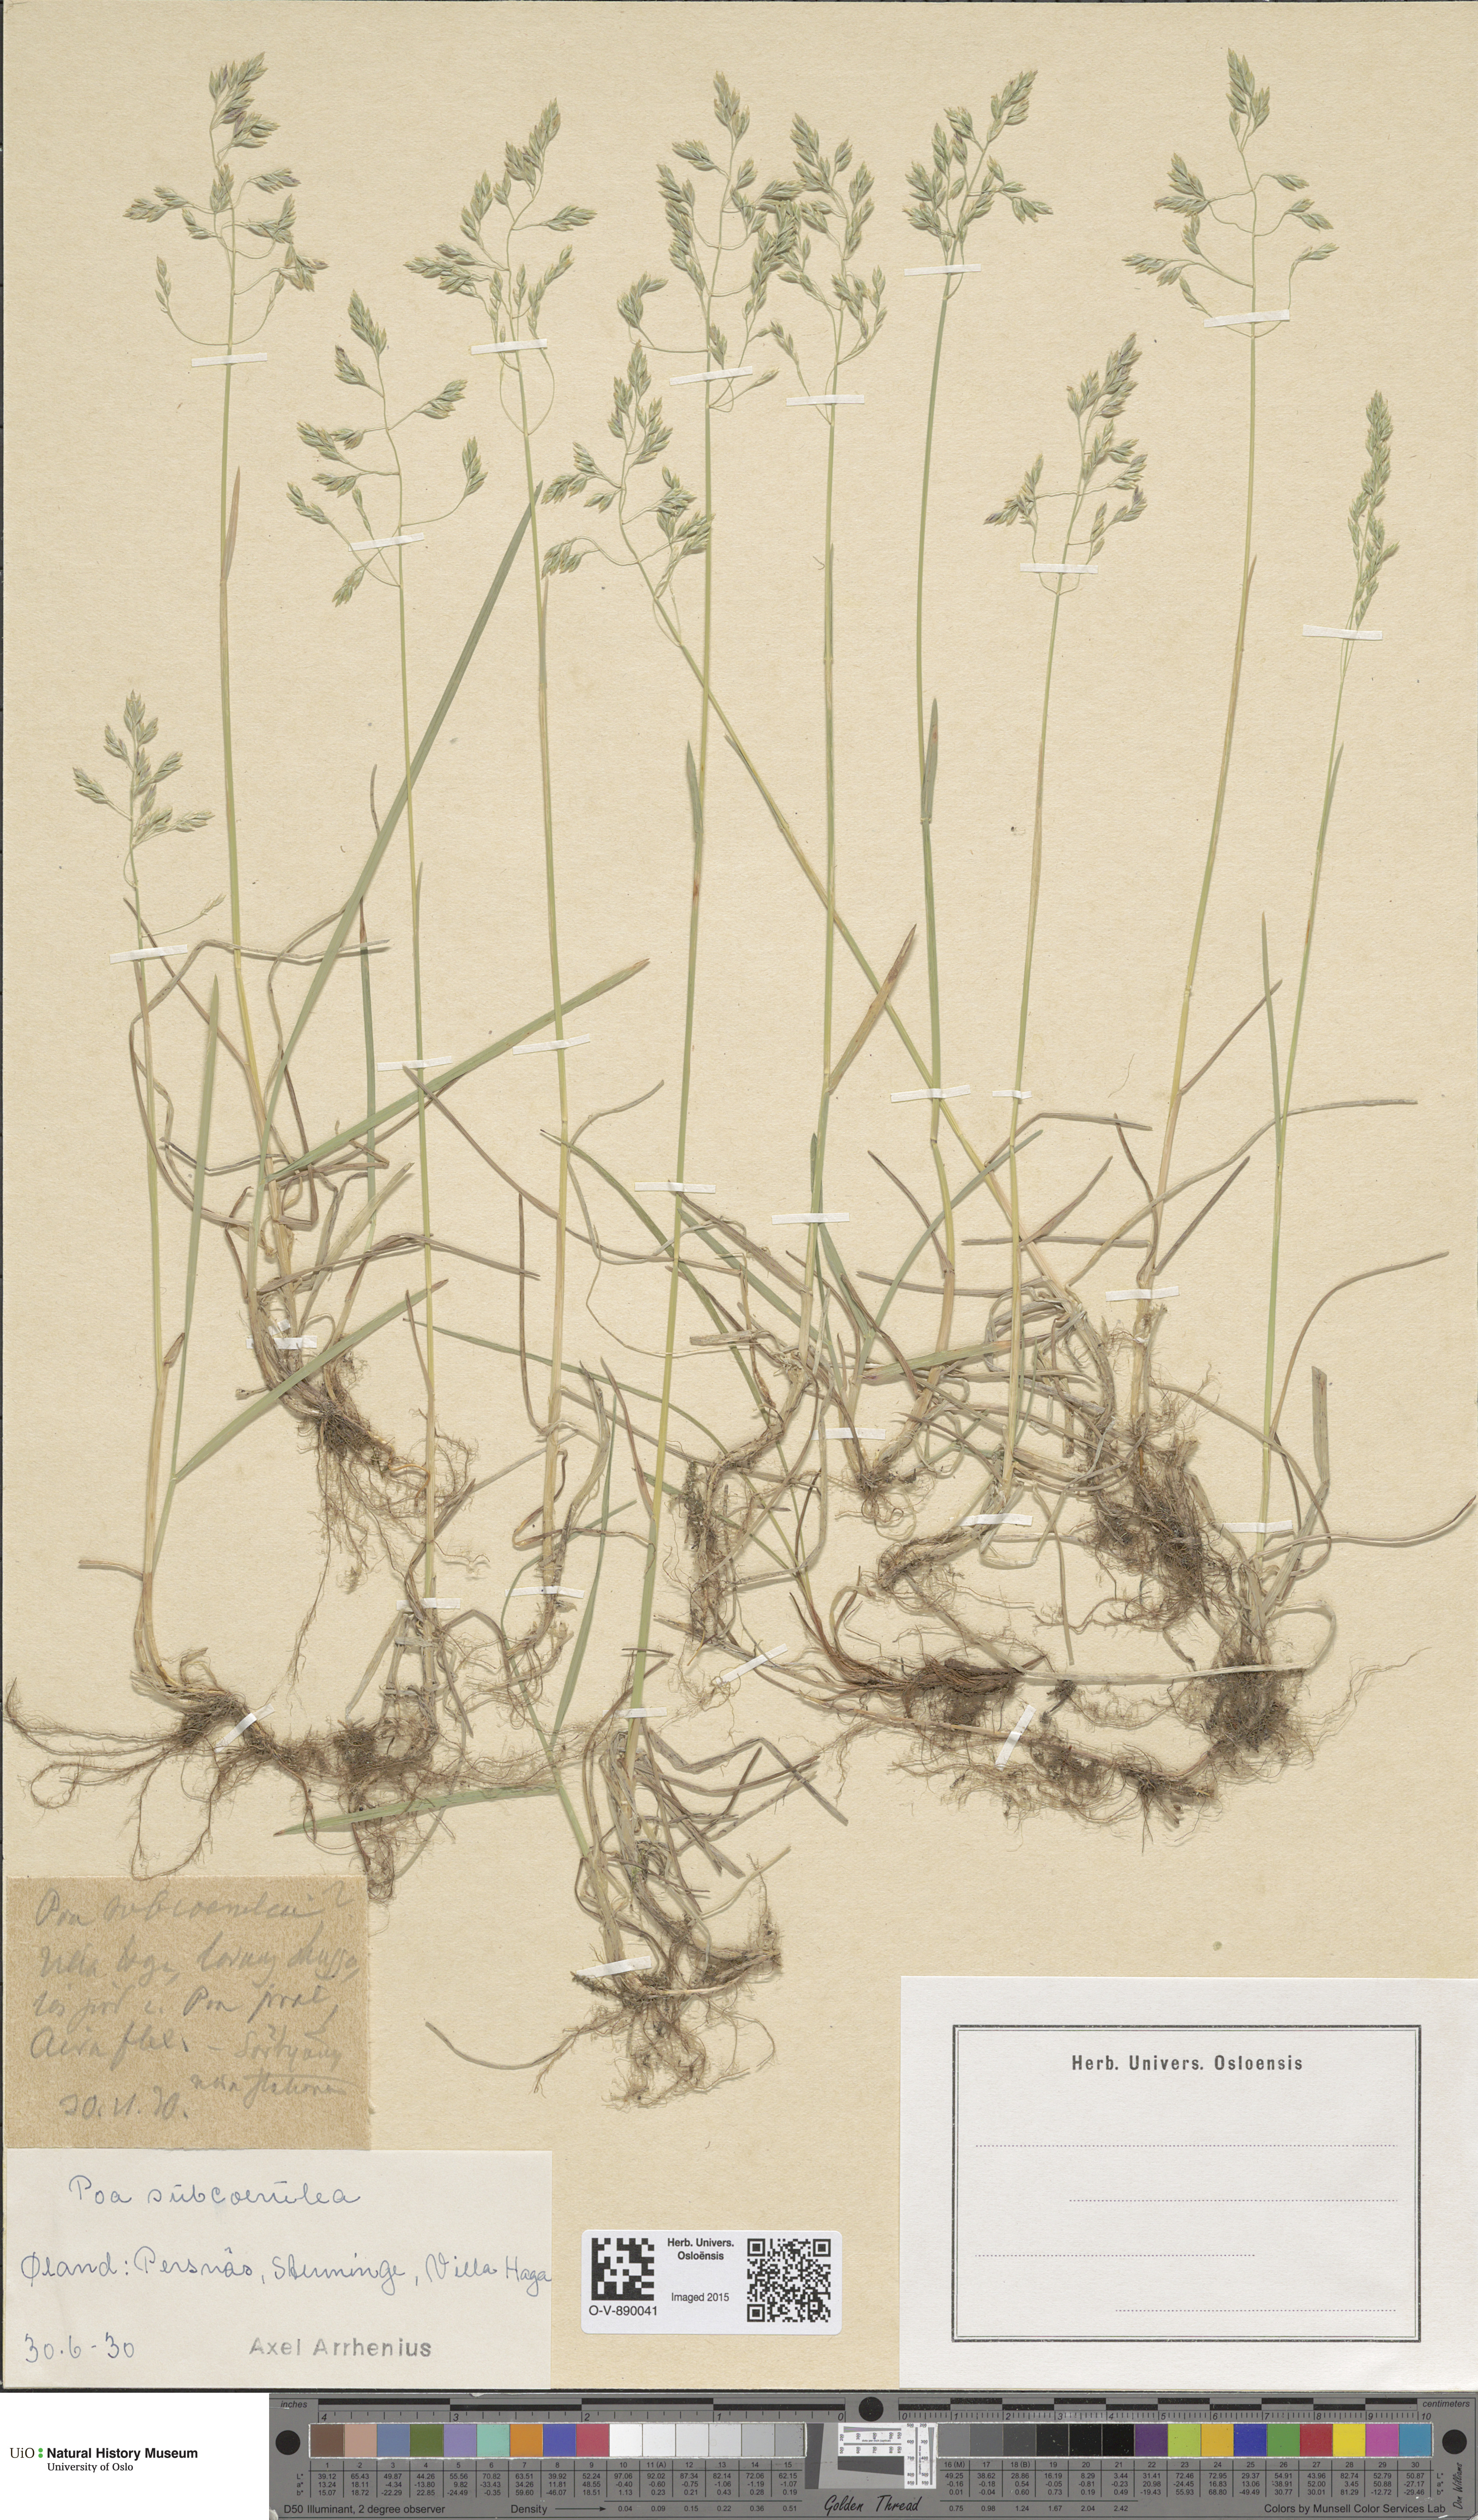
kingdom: Plantae
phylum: Tracheophyta
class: Liliopsida
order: Poales
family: Poaceae
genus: Poa
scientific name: Poa humilis
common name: Spreading meadow-grass
